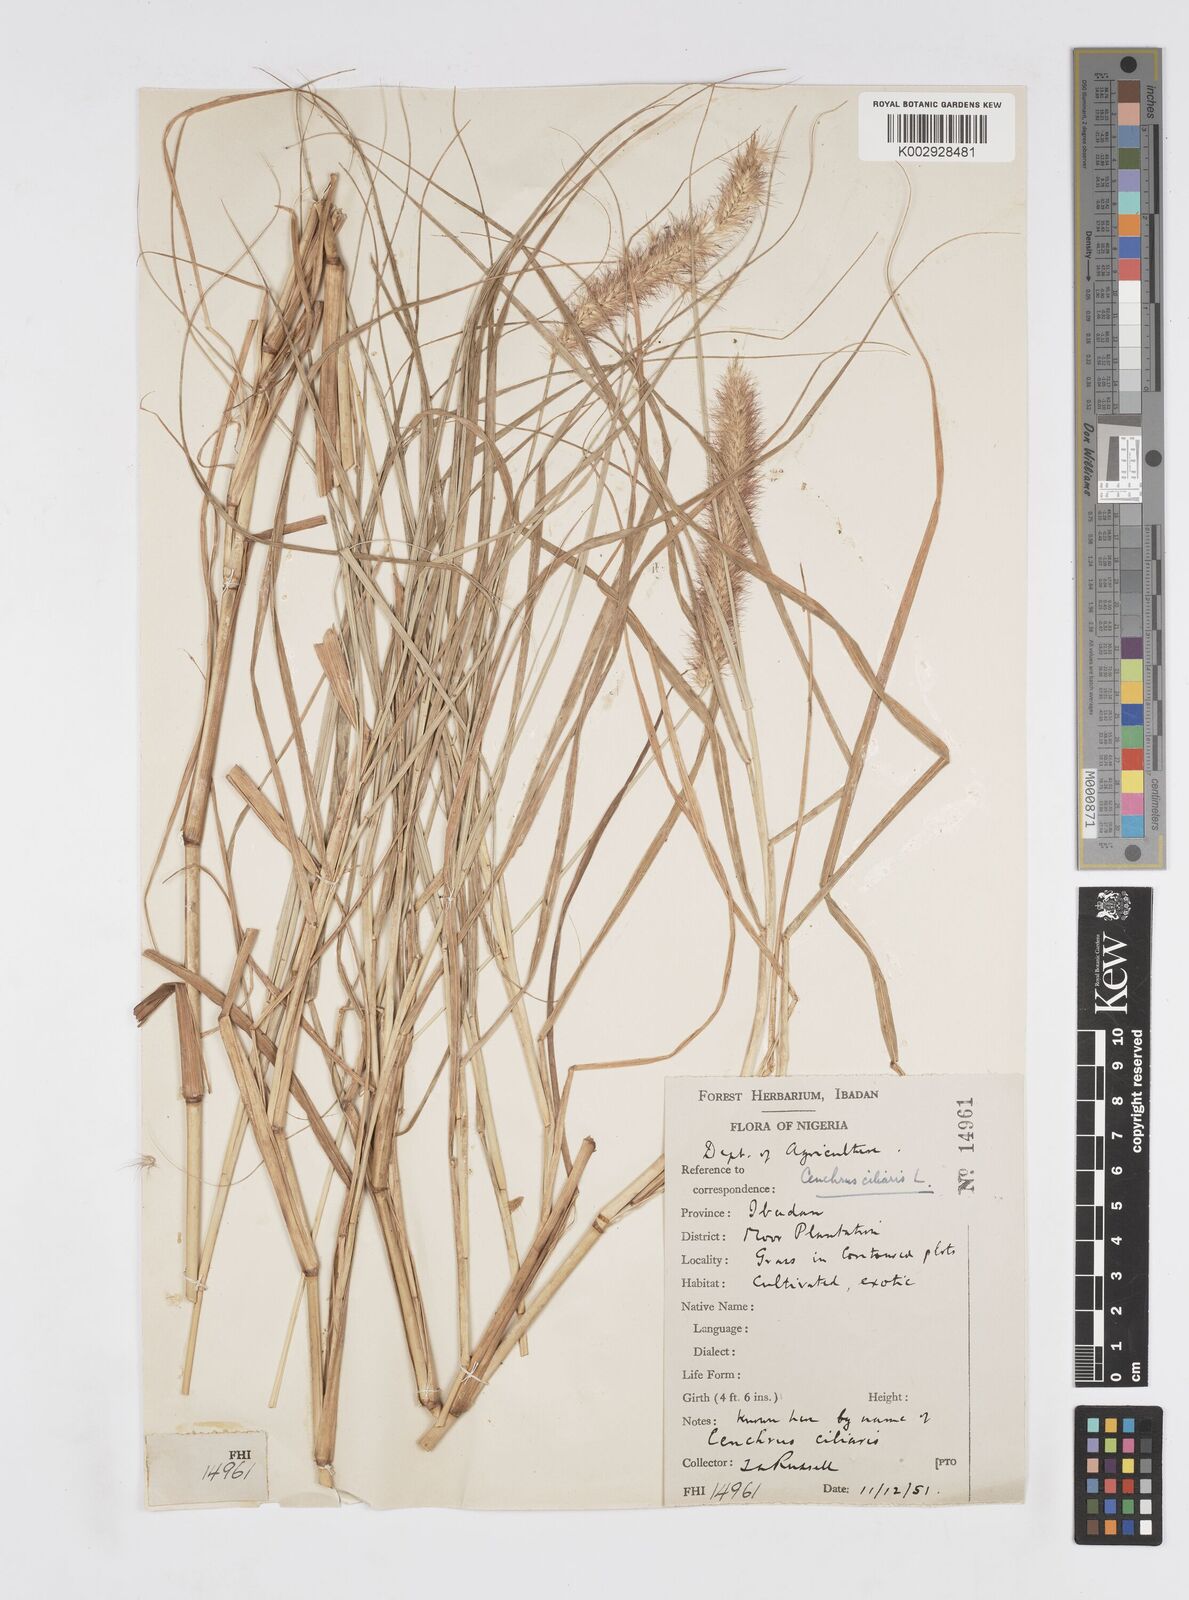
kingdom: Plantae
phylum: Tracheophyta
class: Liliopsida
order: Poales
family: Poaceae
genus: Cenchrus
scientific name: Cenchrus ciliaris
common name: Buffelgrass
